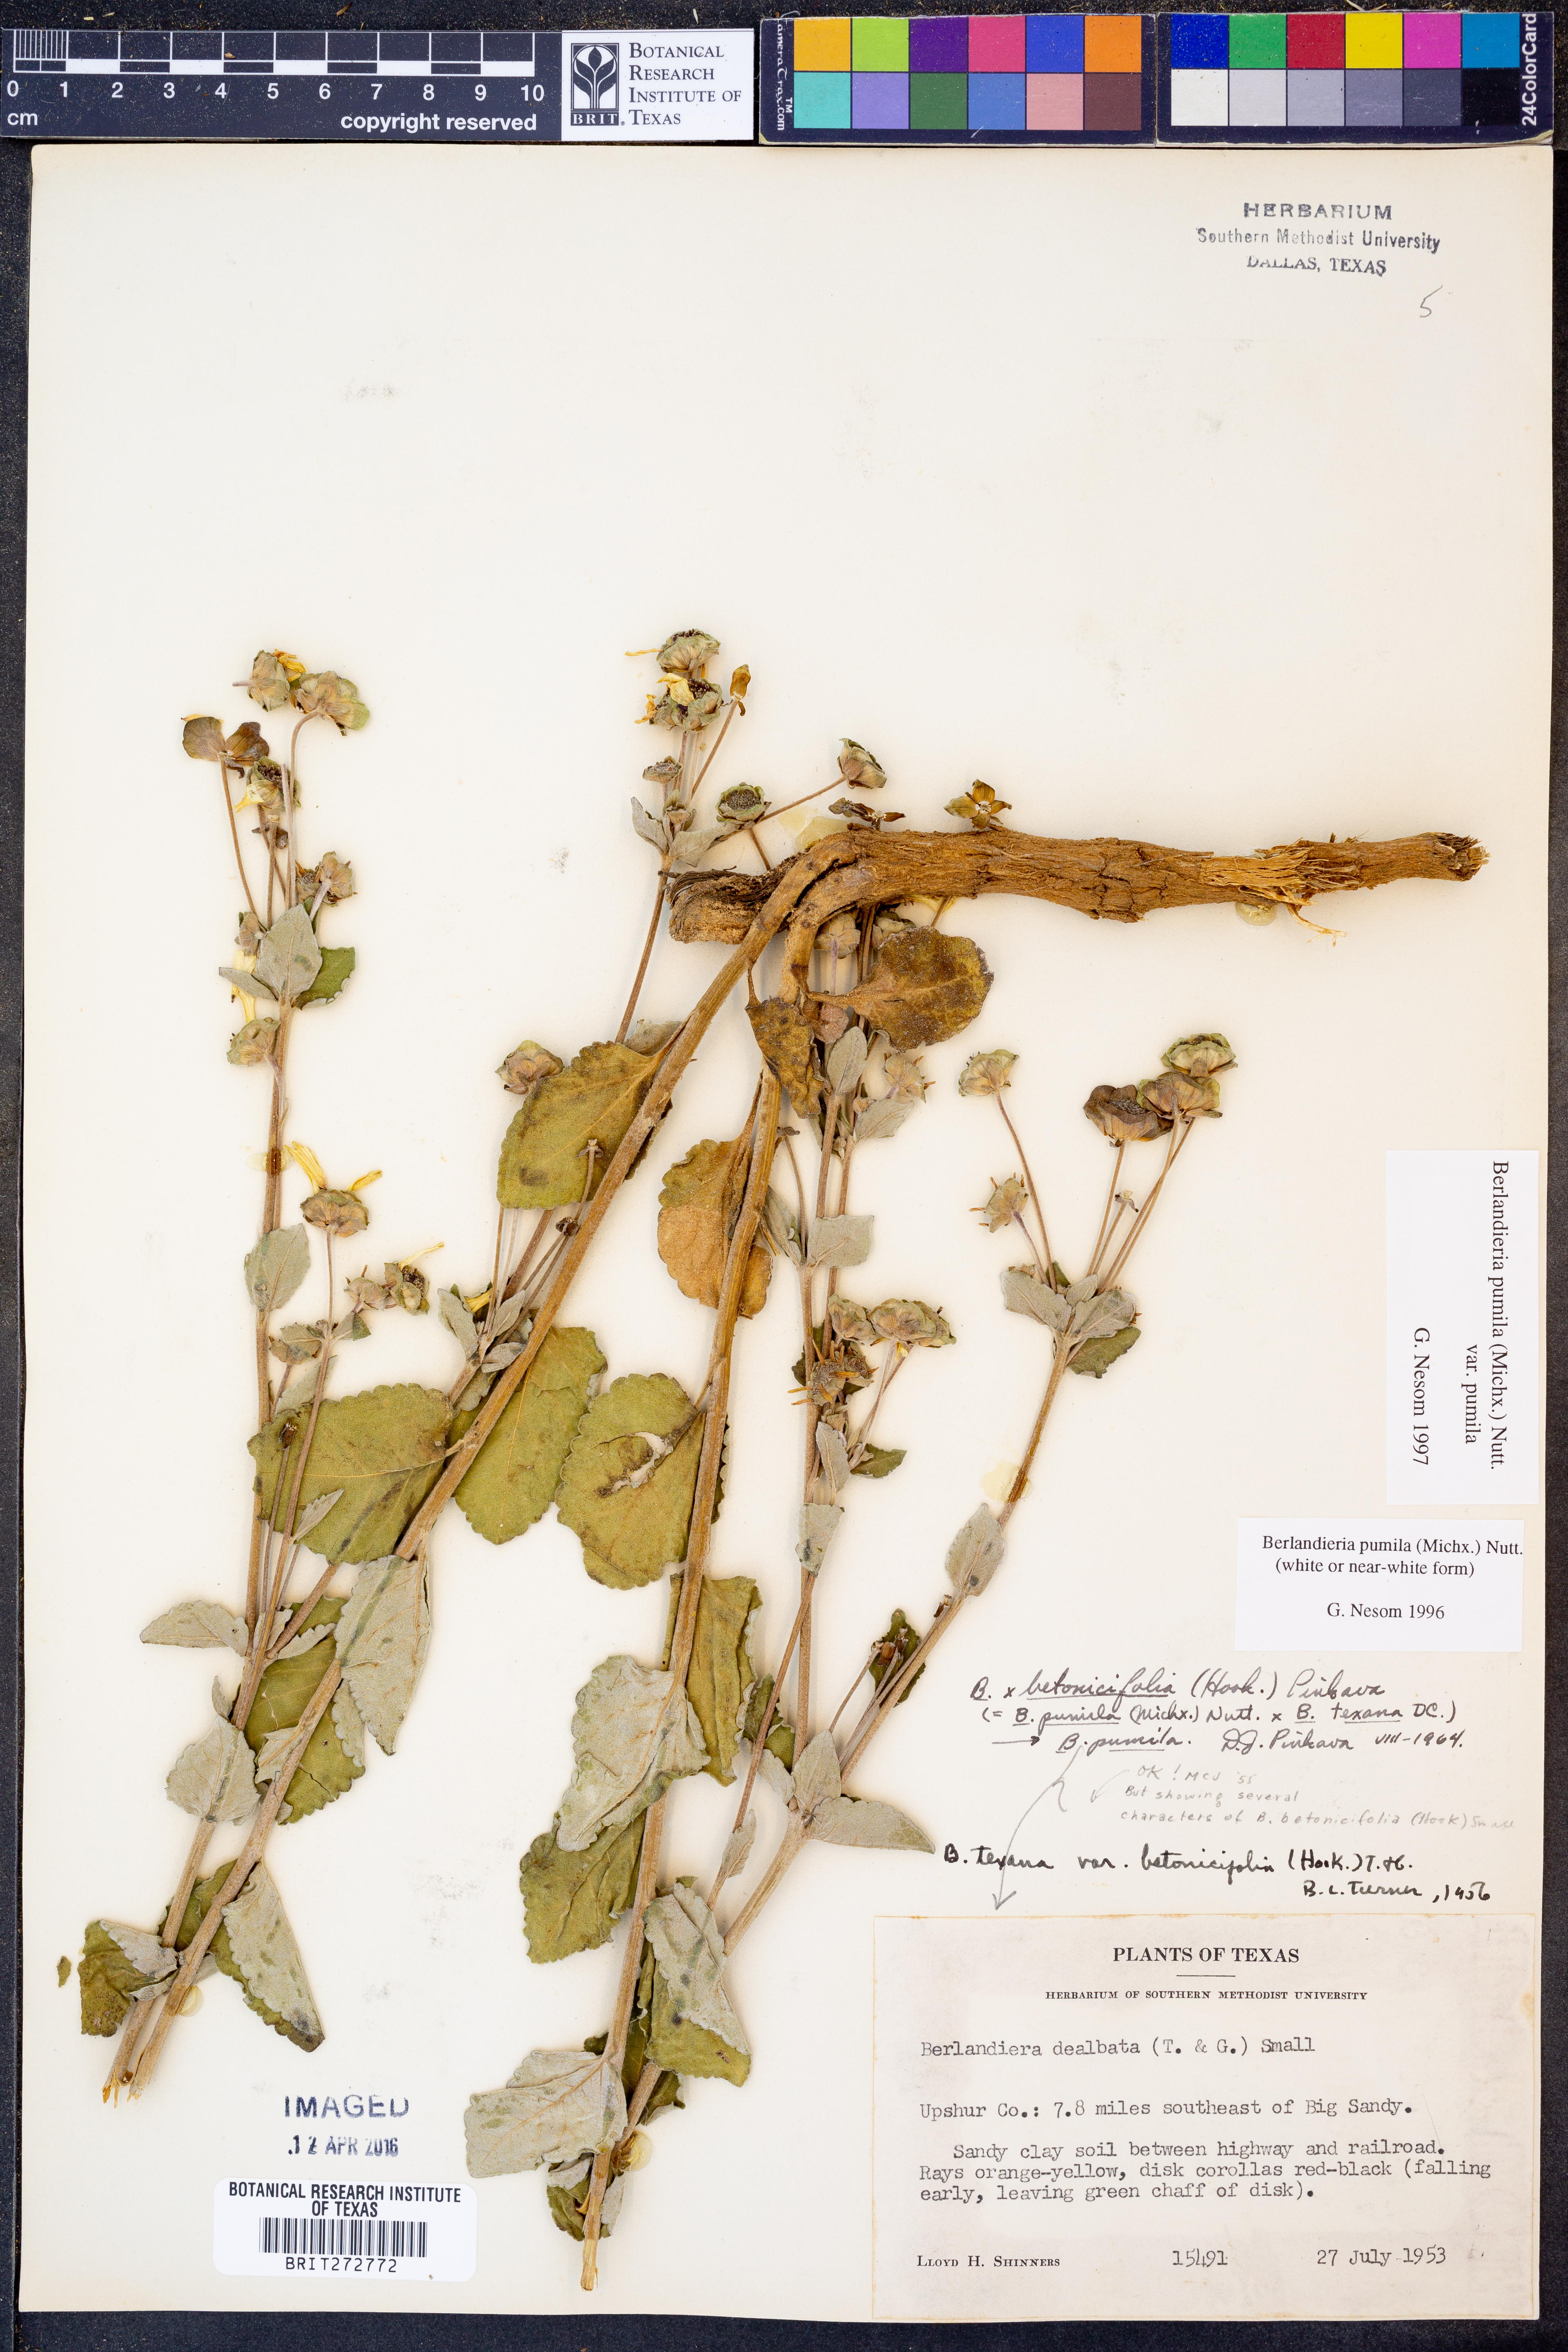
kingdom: Plantae
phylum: Tracheophyta
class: Magnoliopsida
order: Asterales
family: Asteraceae
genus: Berlandiera
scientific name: Berlandiera pumila
